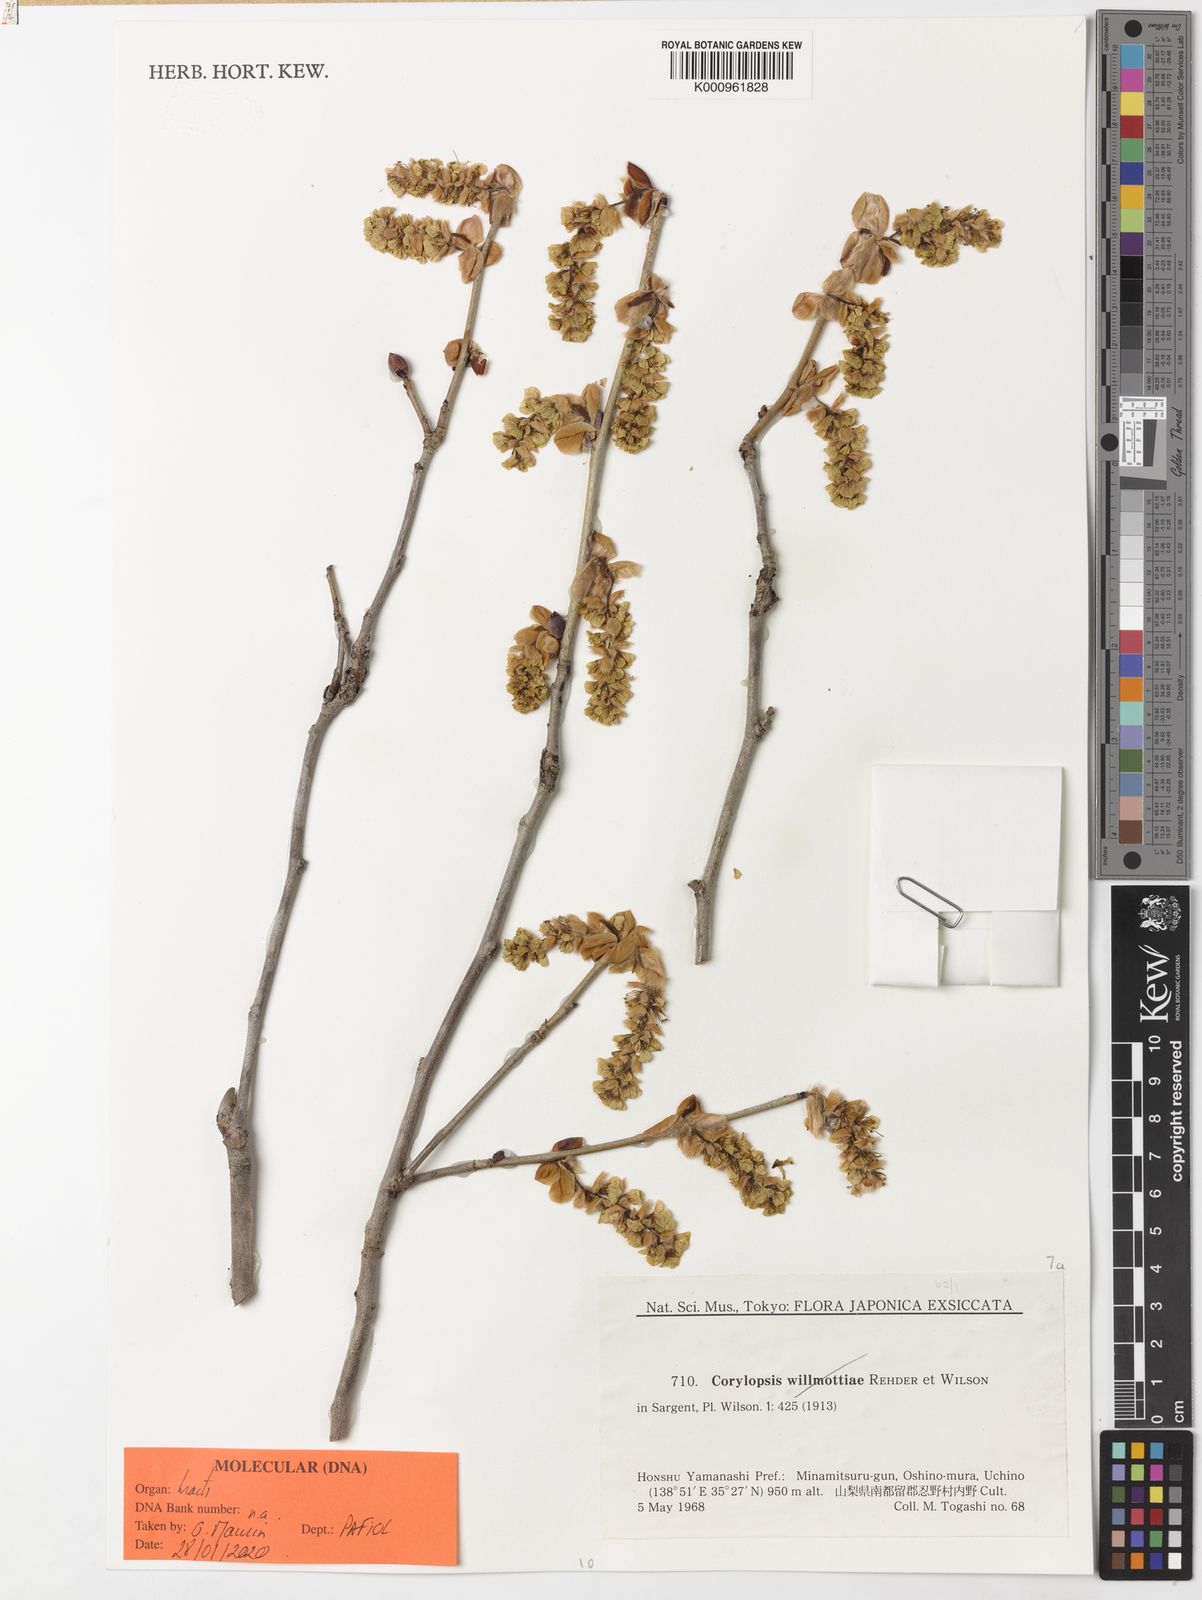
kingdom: Plantae
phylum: Tracheophyta
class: Magnoliopsida
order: Saxifragales
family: Hamamelidaceae
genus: Corylopsis
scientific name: Corylopsis spicata
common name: Spike winter-hazel
